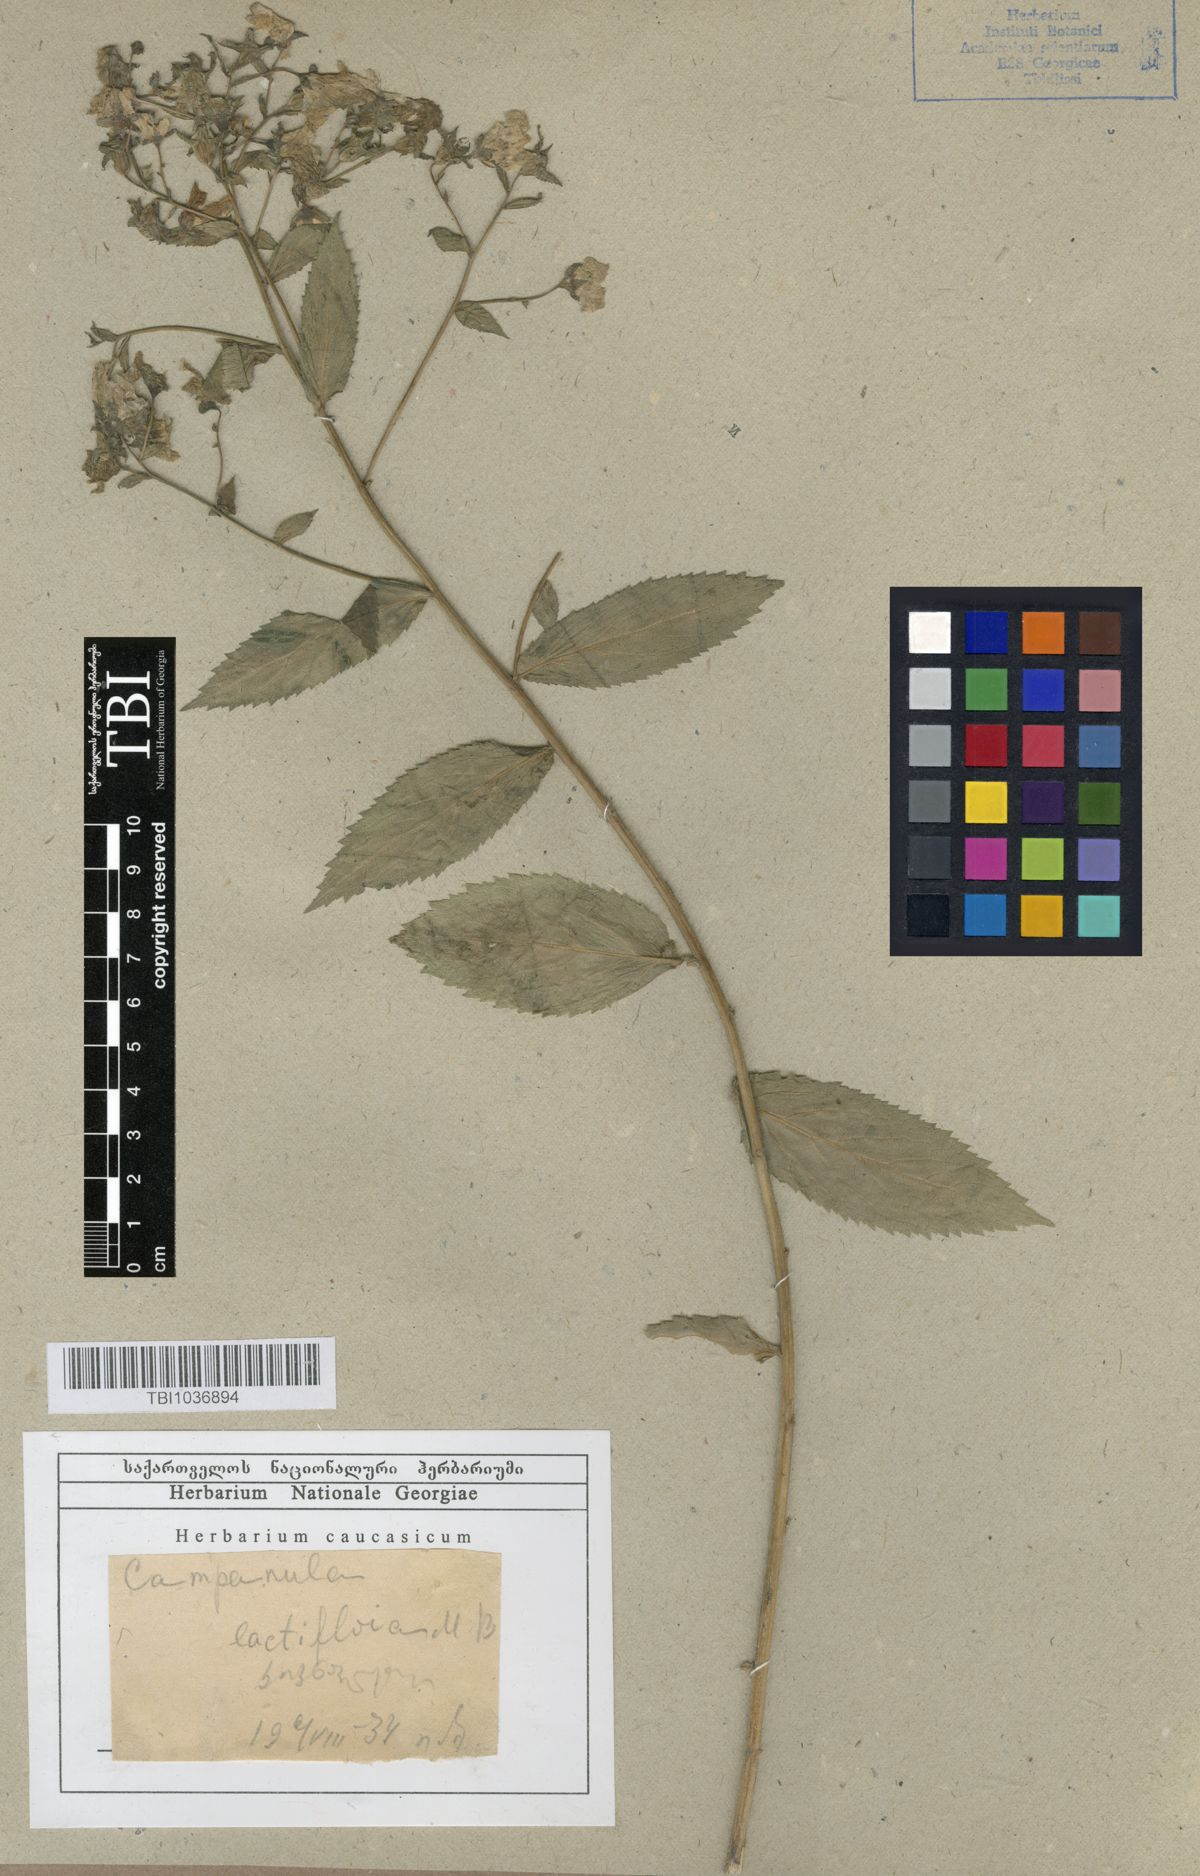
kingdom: Plantae
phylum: Tracheophyta
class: Magnoliopsida
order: Asterales
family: Campanulaceae
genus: Campanula
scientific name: Campanula lactiflora
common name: Milky bellflower
